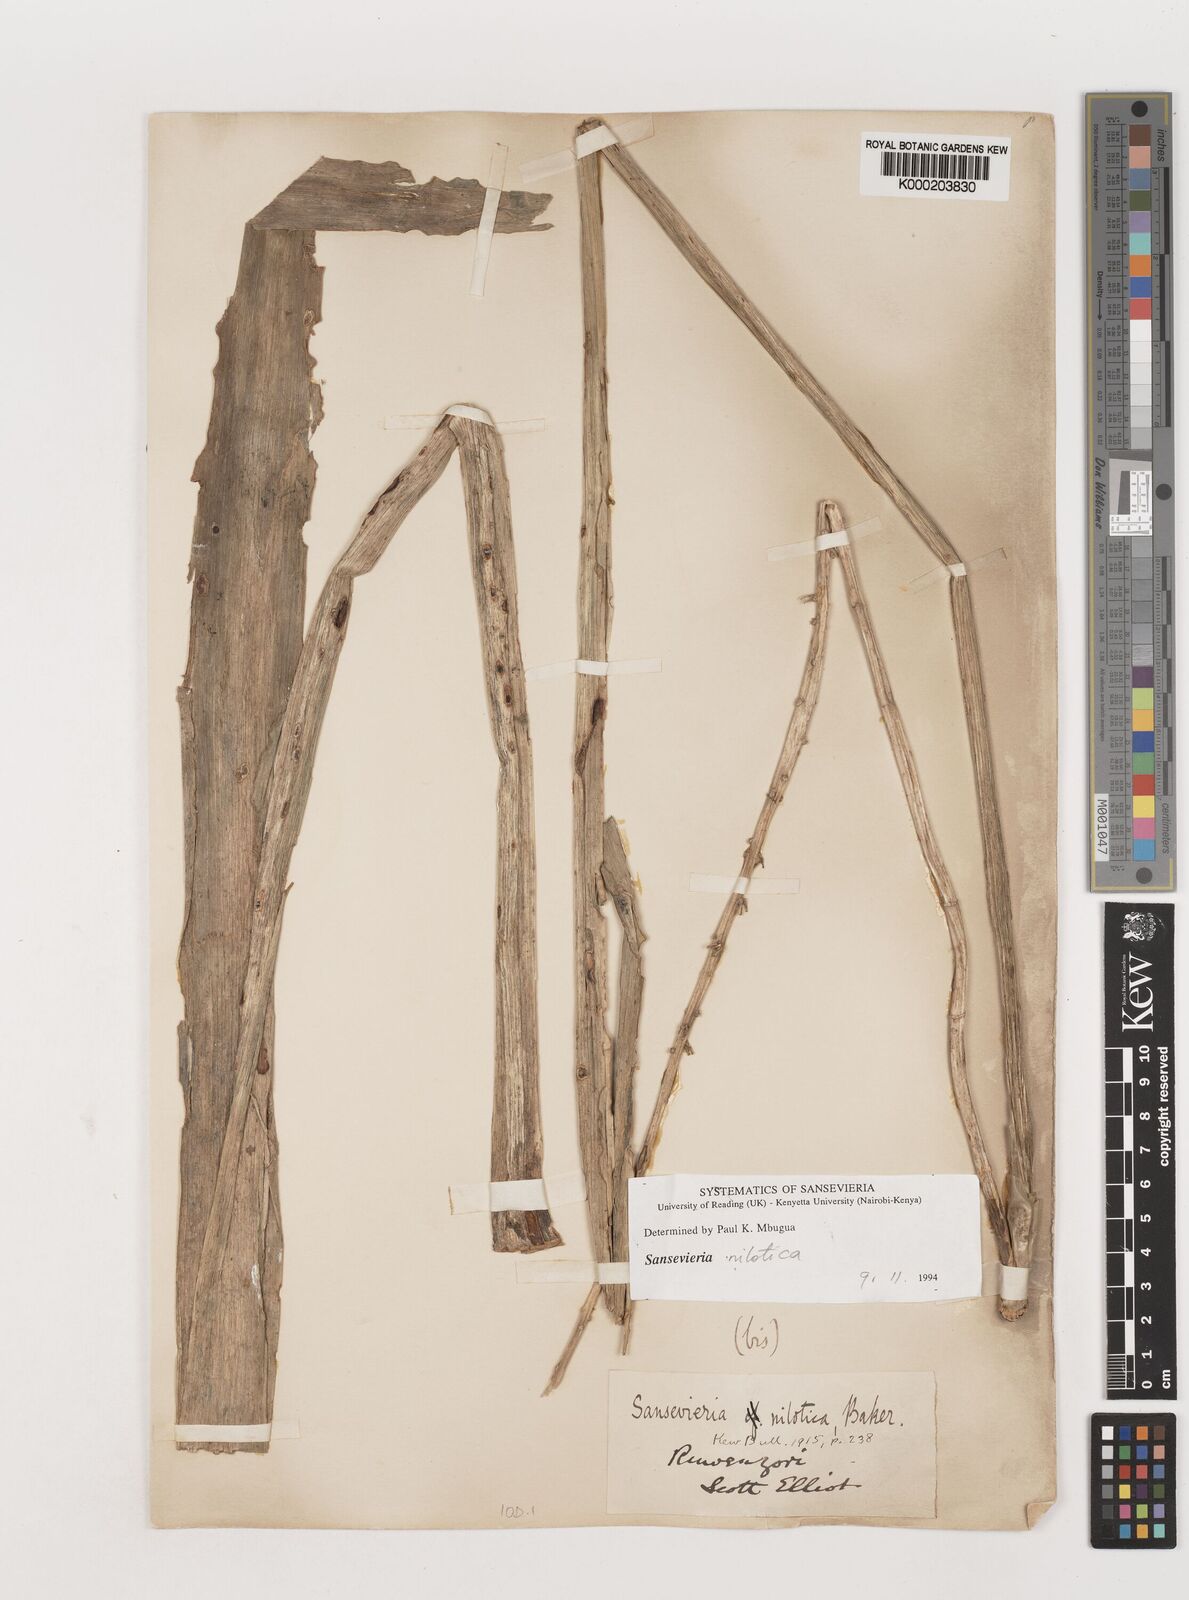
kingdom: Plantae
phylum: Tracheophyta
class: Liliopsida
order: Asparagales
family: Asparagaceae
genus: Dracaena
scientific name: Dracaena nilotica
